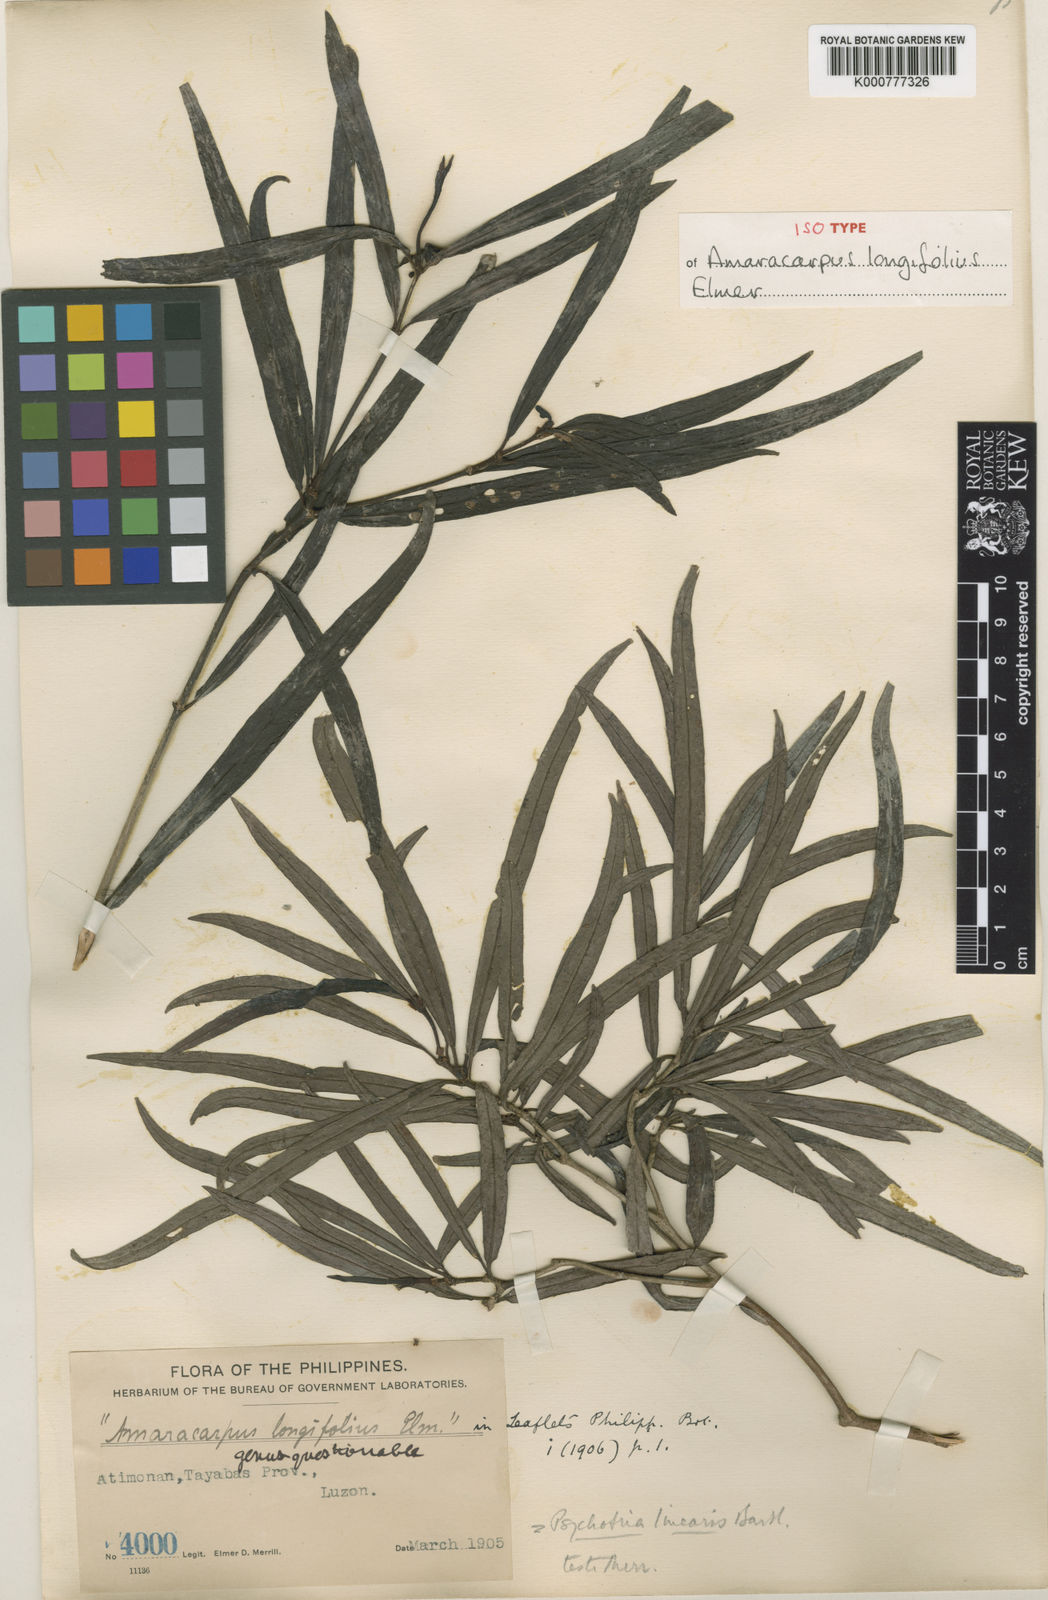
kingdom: Plantae
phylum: Tracheophyta
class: Magnoliopsida
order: Gentianales
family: Rubiaceae
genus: Psychotria
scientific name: Psychotria linearis
